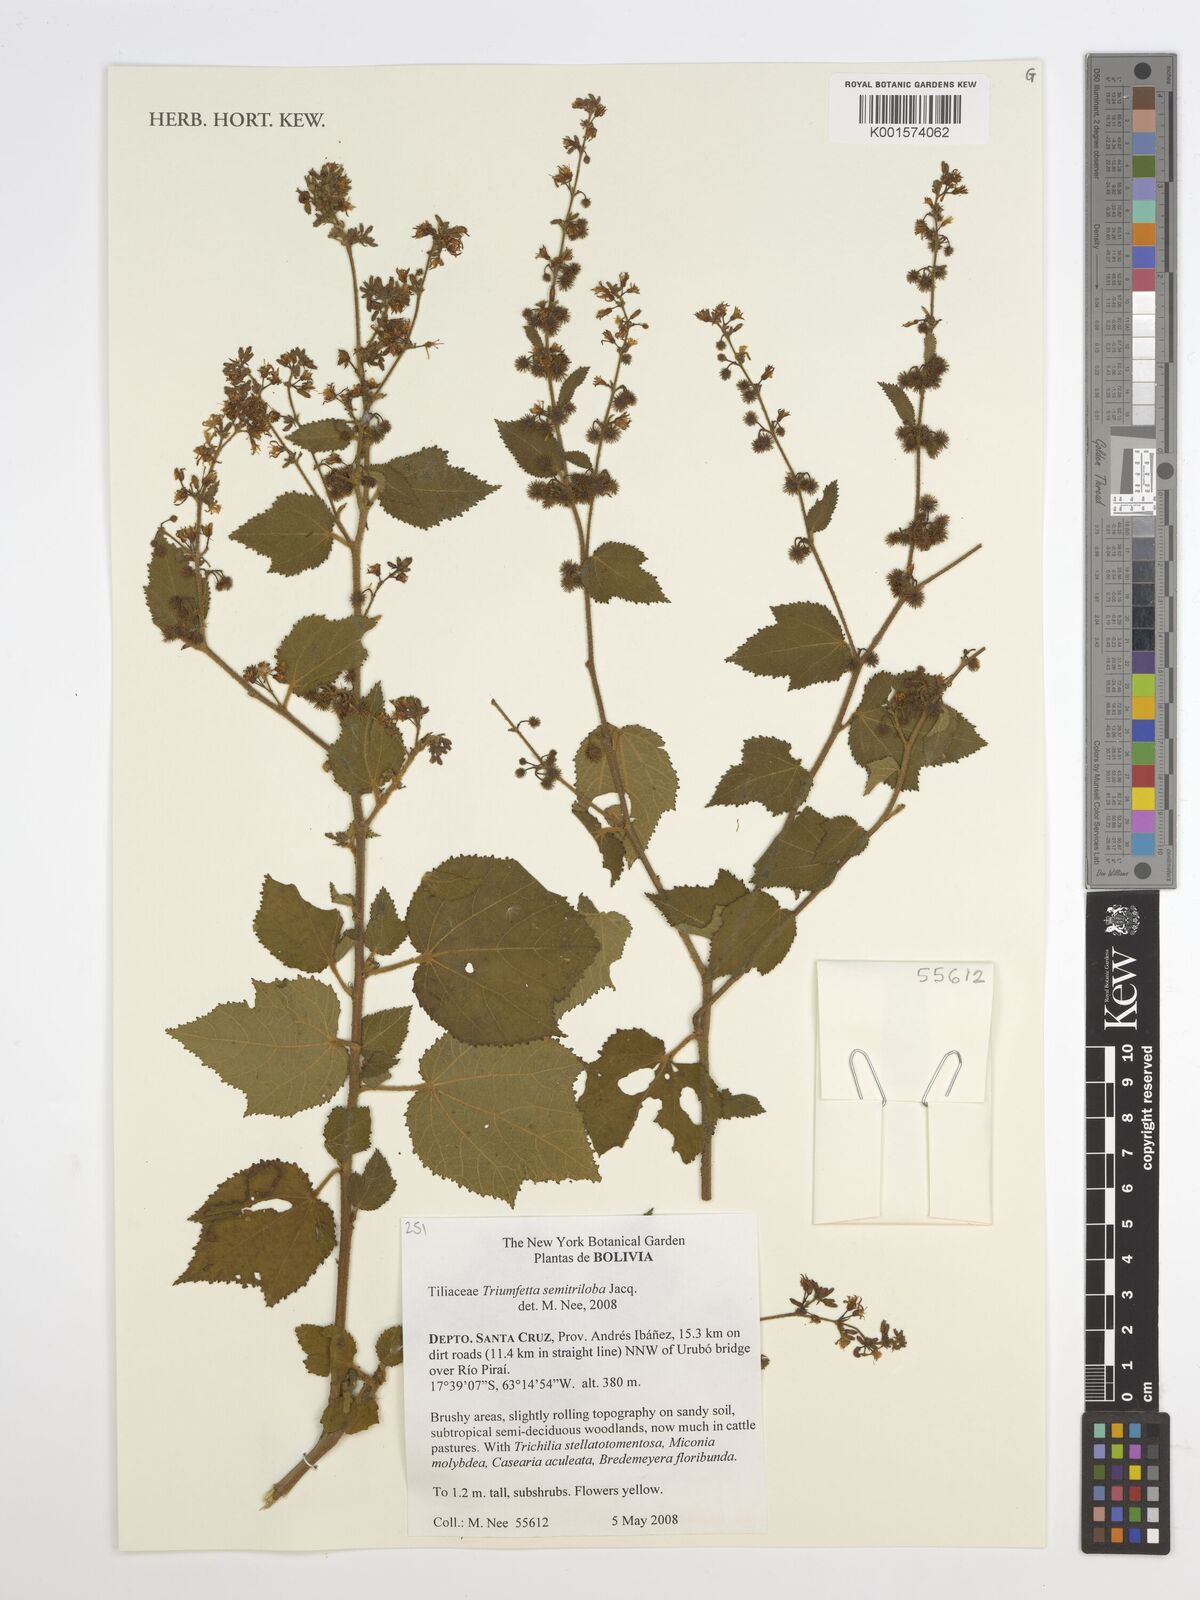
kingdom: Plantae
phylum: Tracheophyta
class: Magnoliopsida
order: Malvales
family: Malvaceae
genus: Triumfetta
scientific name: Triumfetta semitriloba
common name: Sacramento burbark
